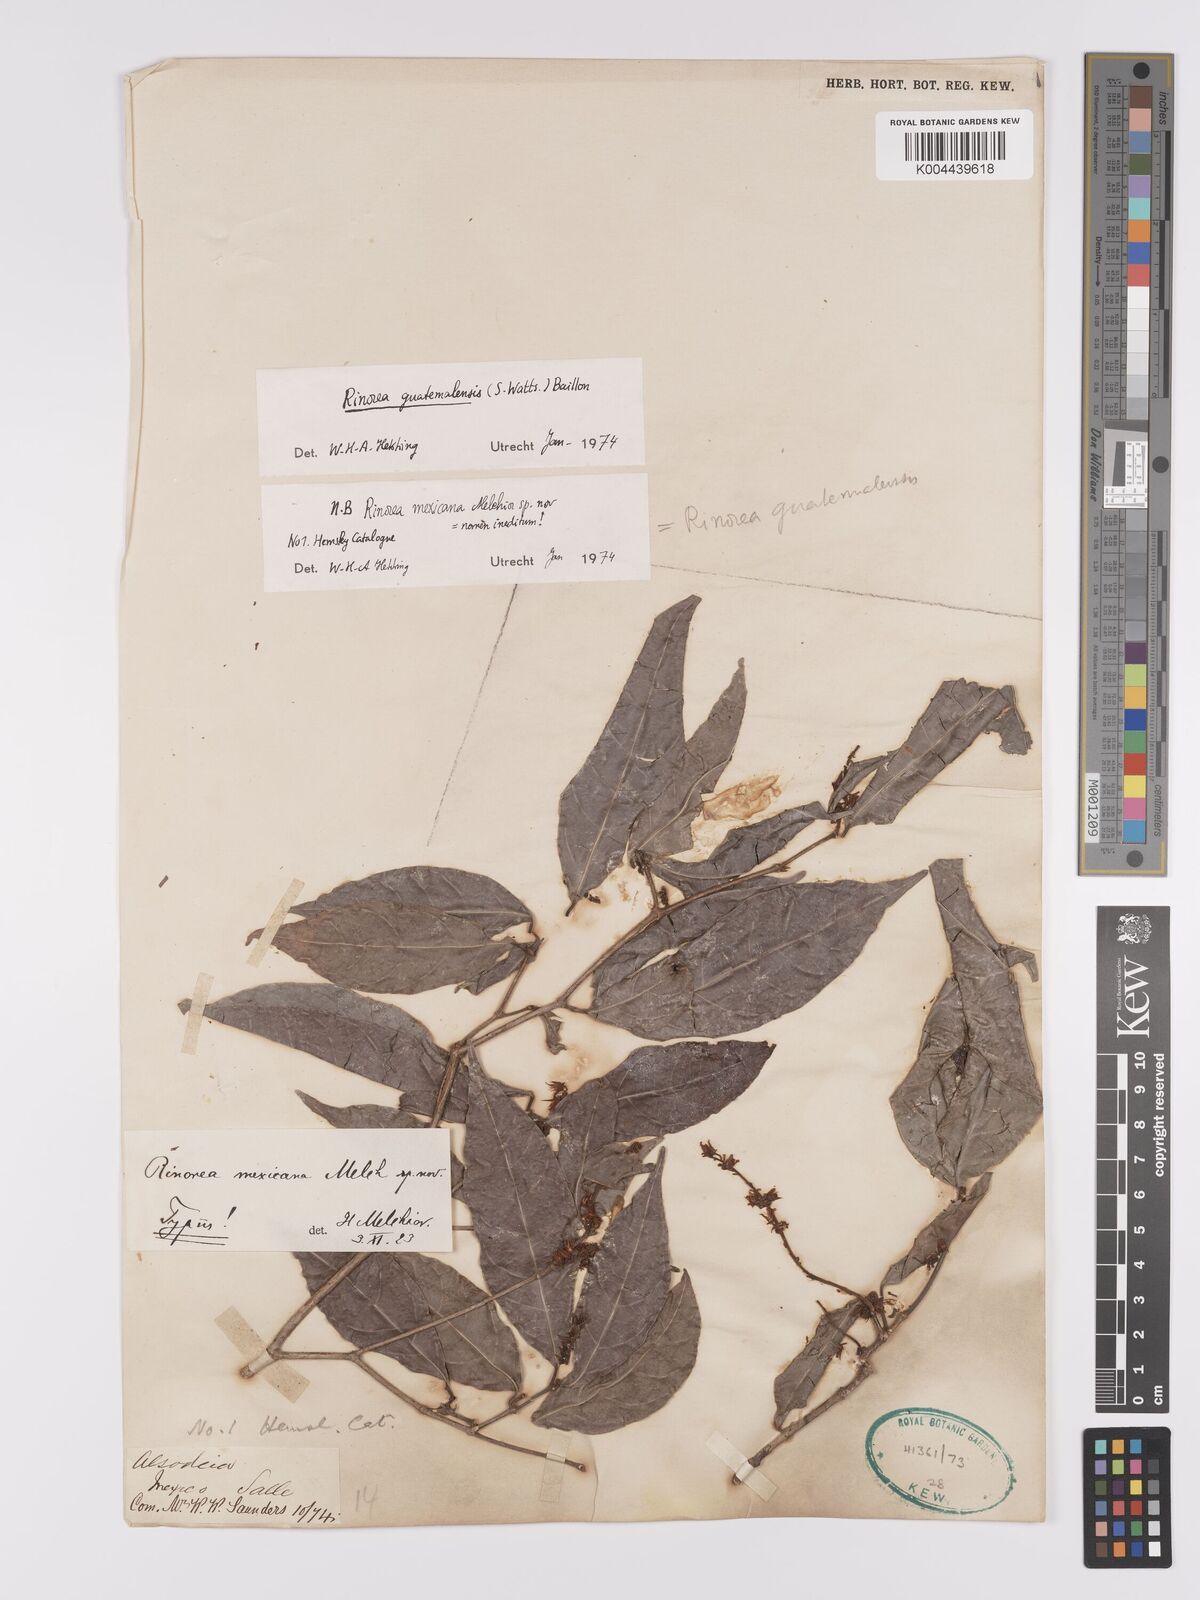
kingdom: Plantae
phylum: Tracheophyta
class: Magnoliopsida
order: Malpighiales
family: Violaceae
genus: Rinorea
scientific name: Rinorea guatemalensis
